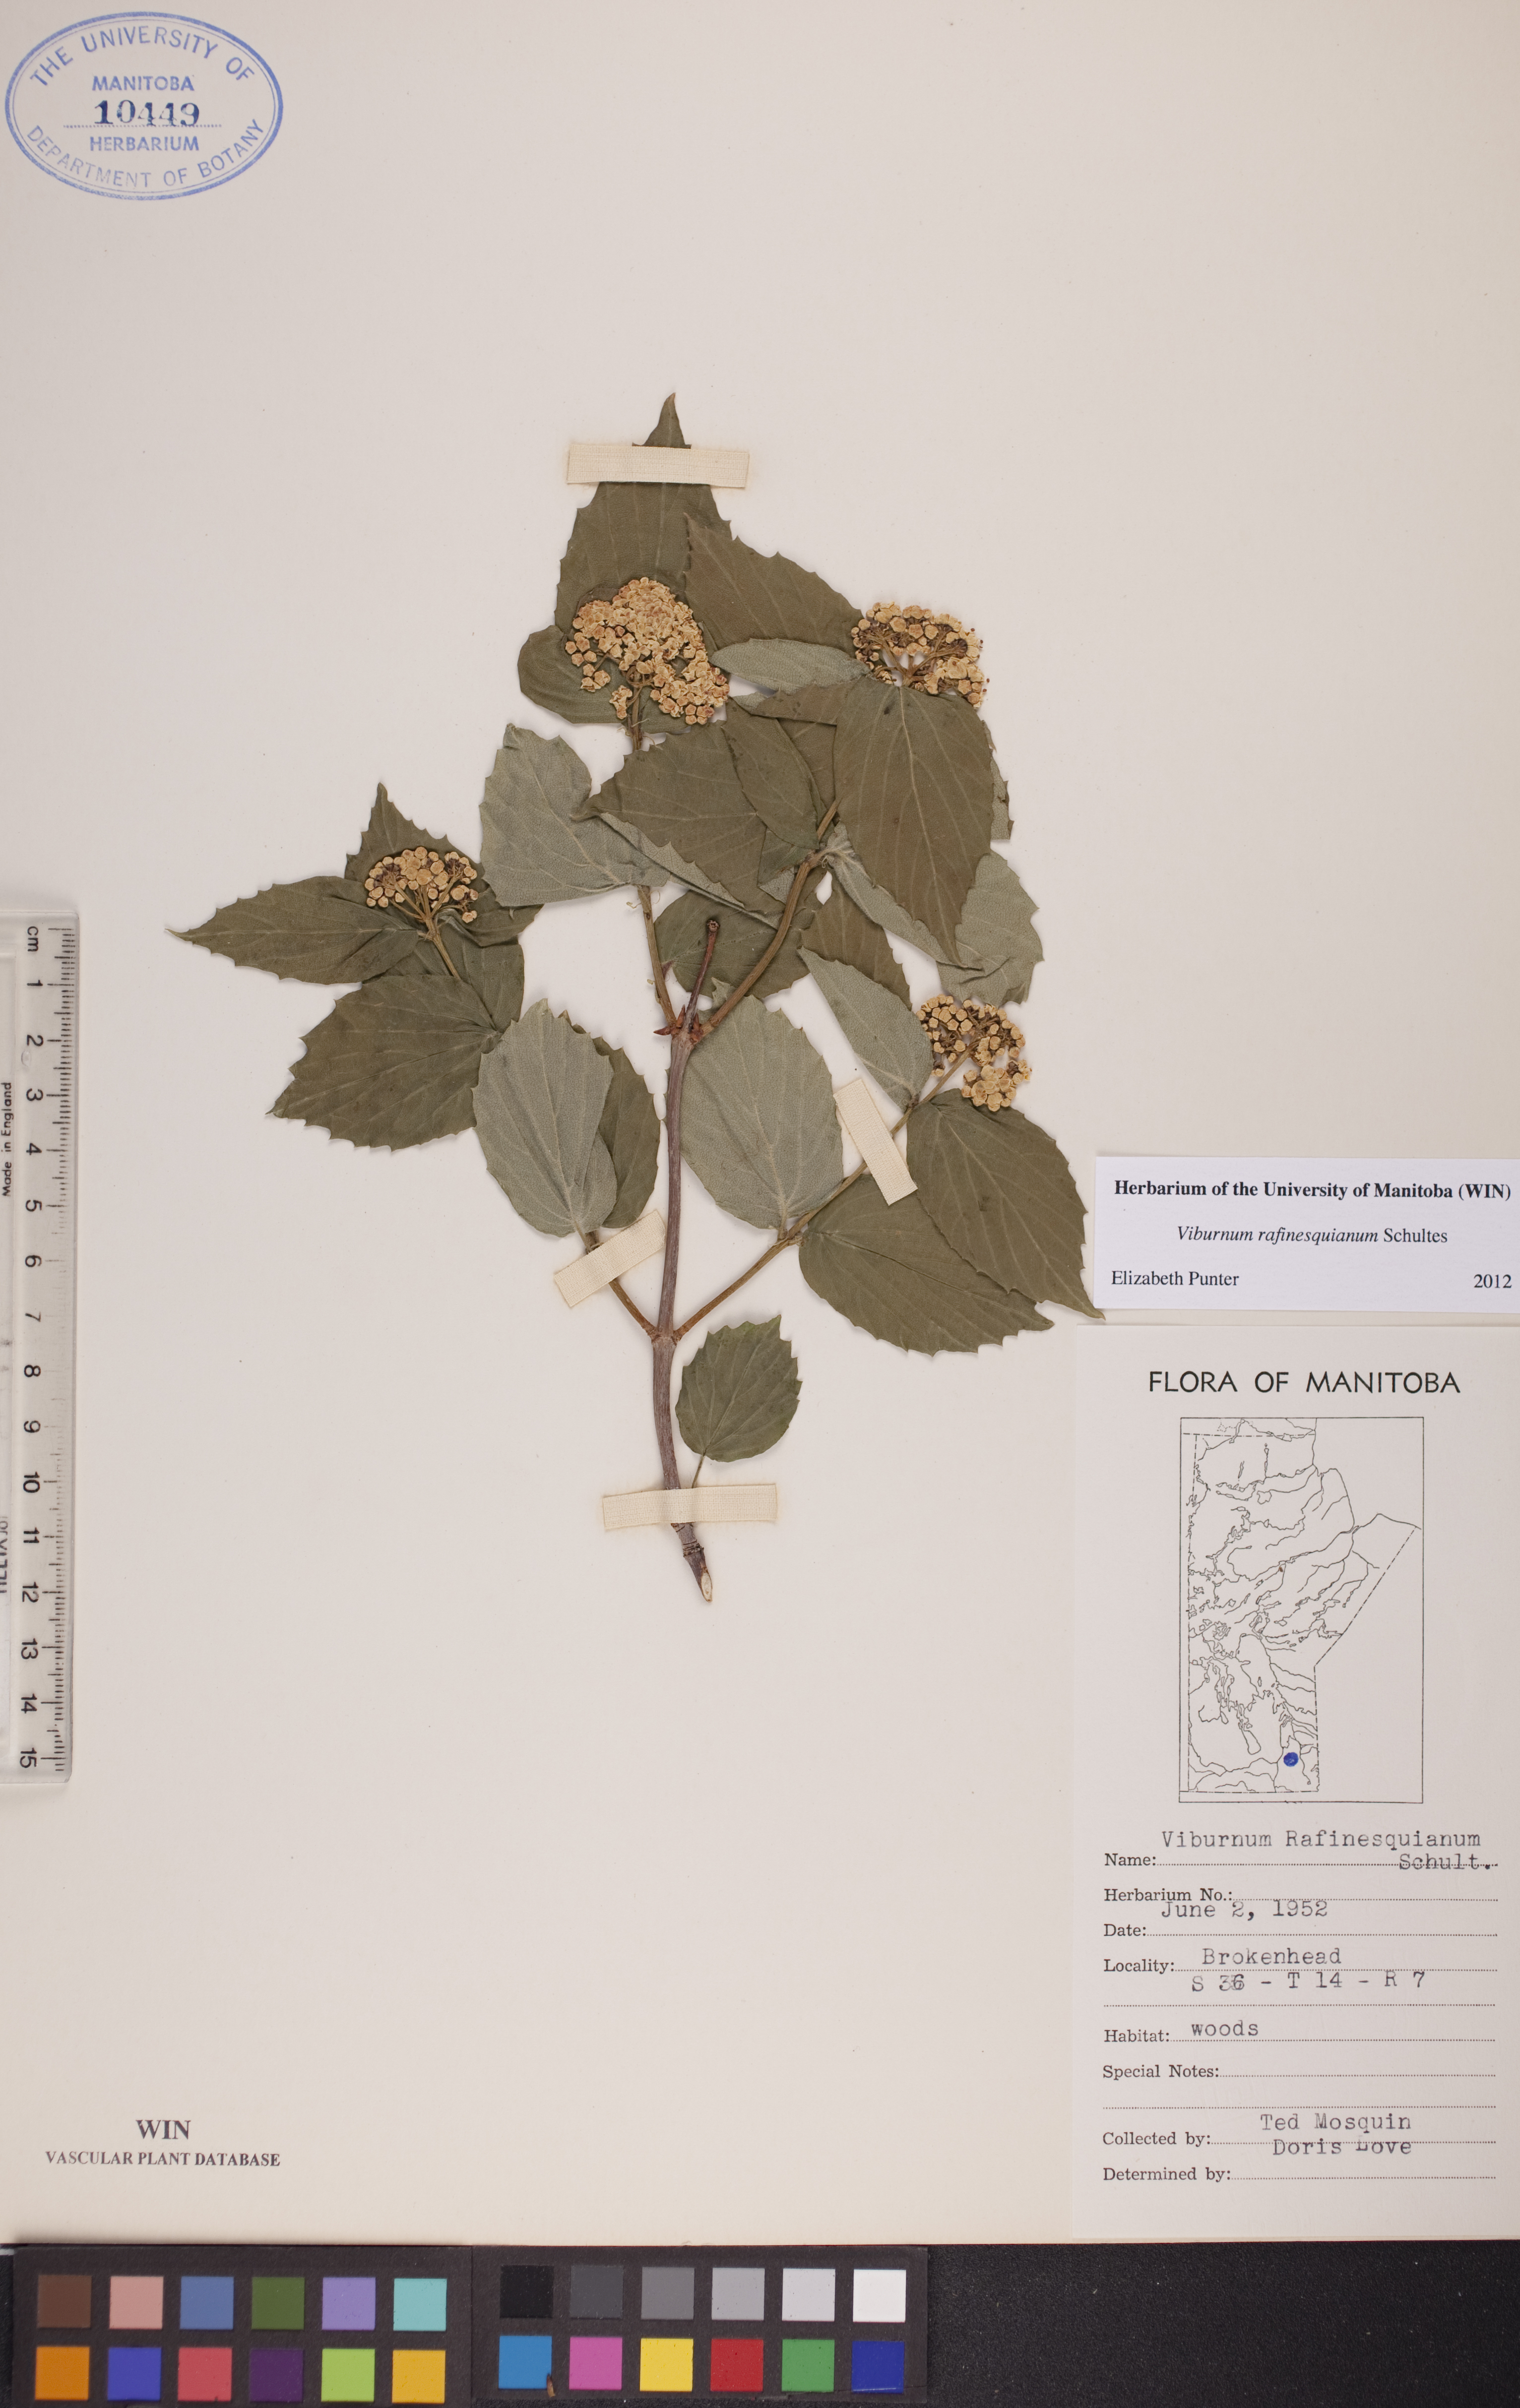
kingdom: Plantae
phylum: Tracheophyta
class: Magnoliopsida
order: Dipsacales
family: Viburnaceae
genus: Viburnum
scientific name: Viburnum rafinesquianum
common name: Downy arrow-wood
